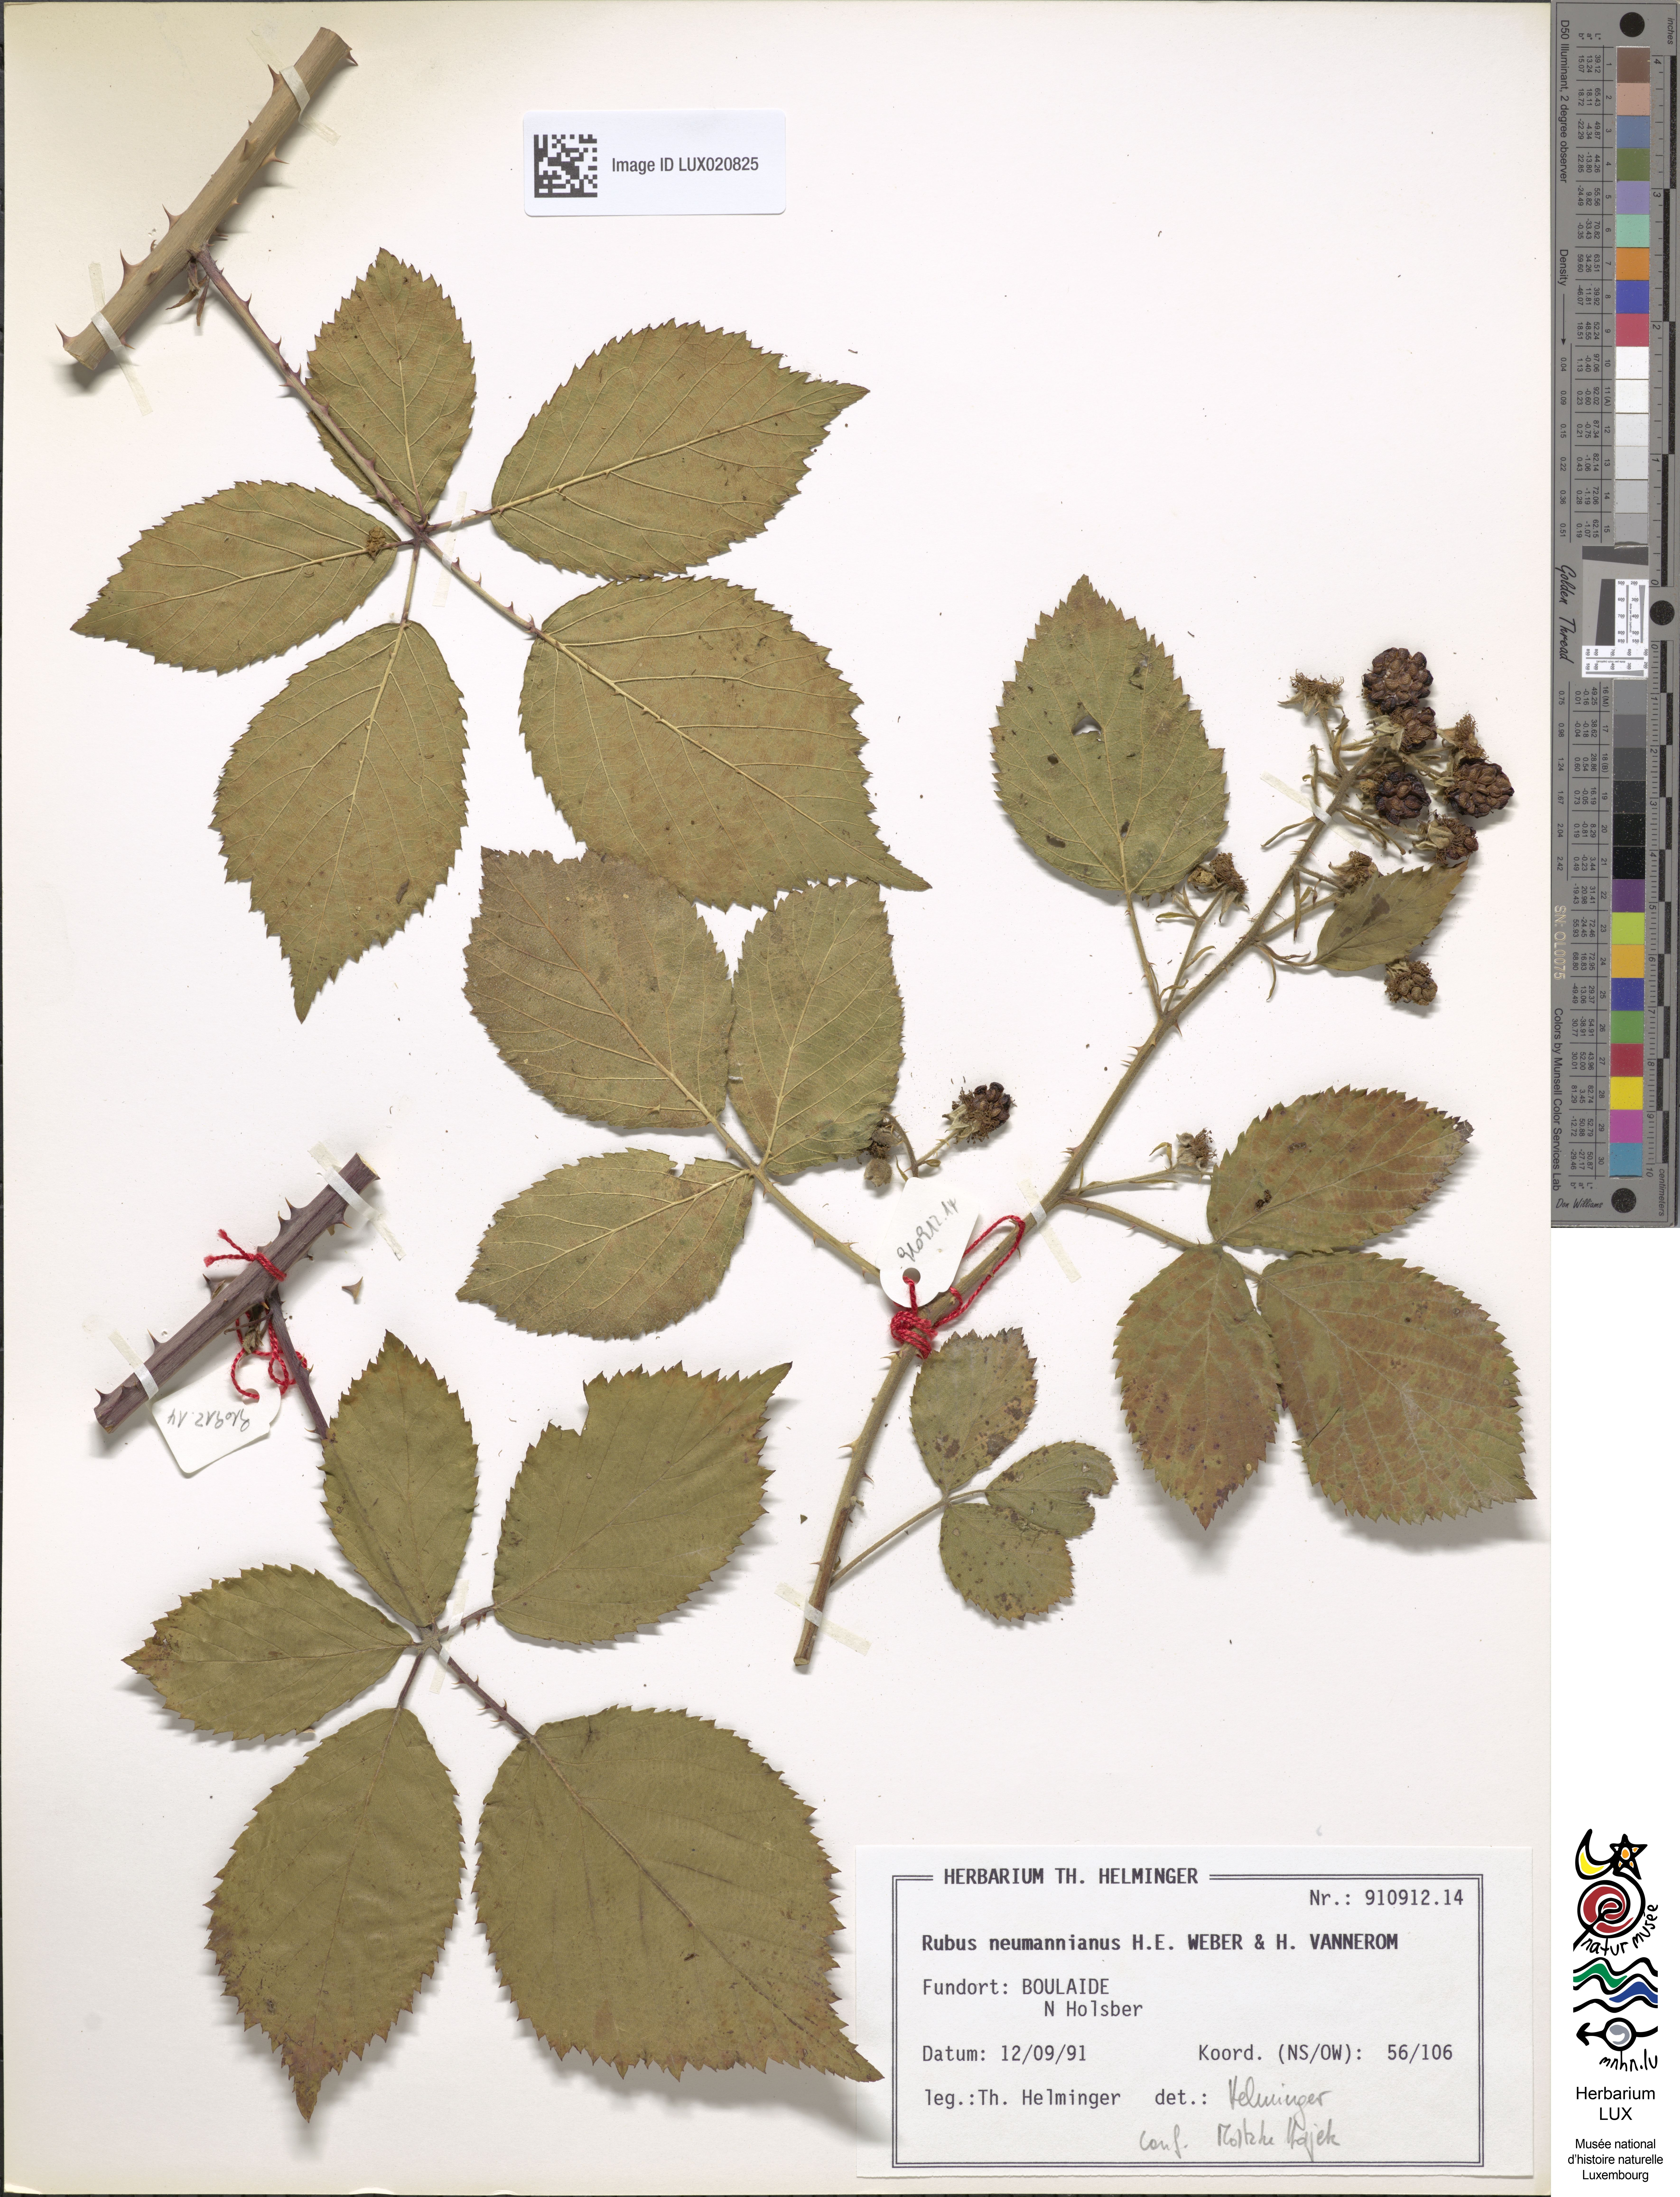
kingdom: Plantae
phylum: Tracheophyta
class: Magnoliopsida
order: Rosales
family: Rosaceae
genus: Rubus
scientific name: Rubus favonii
